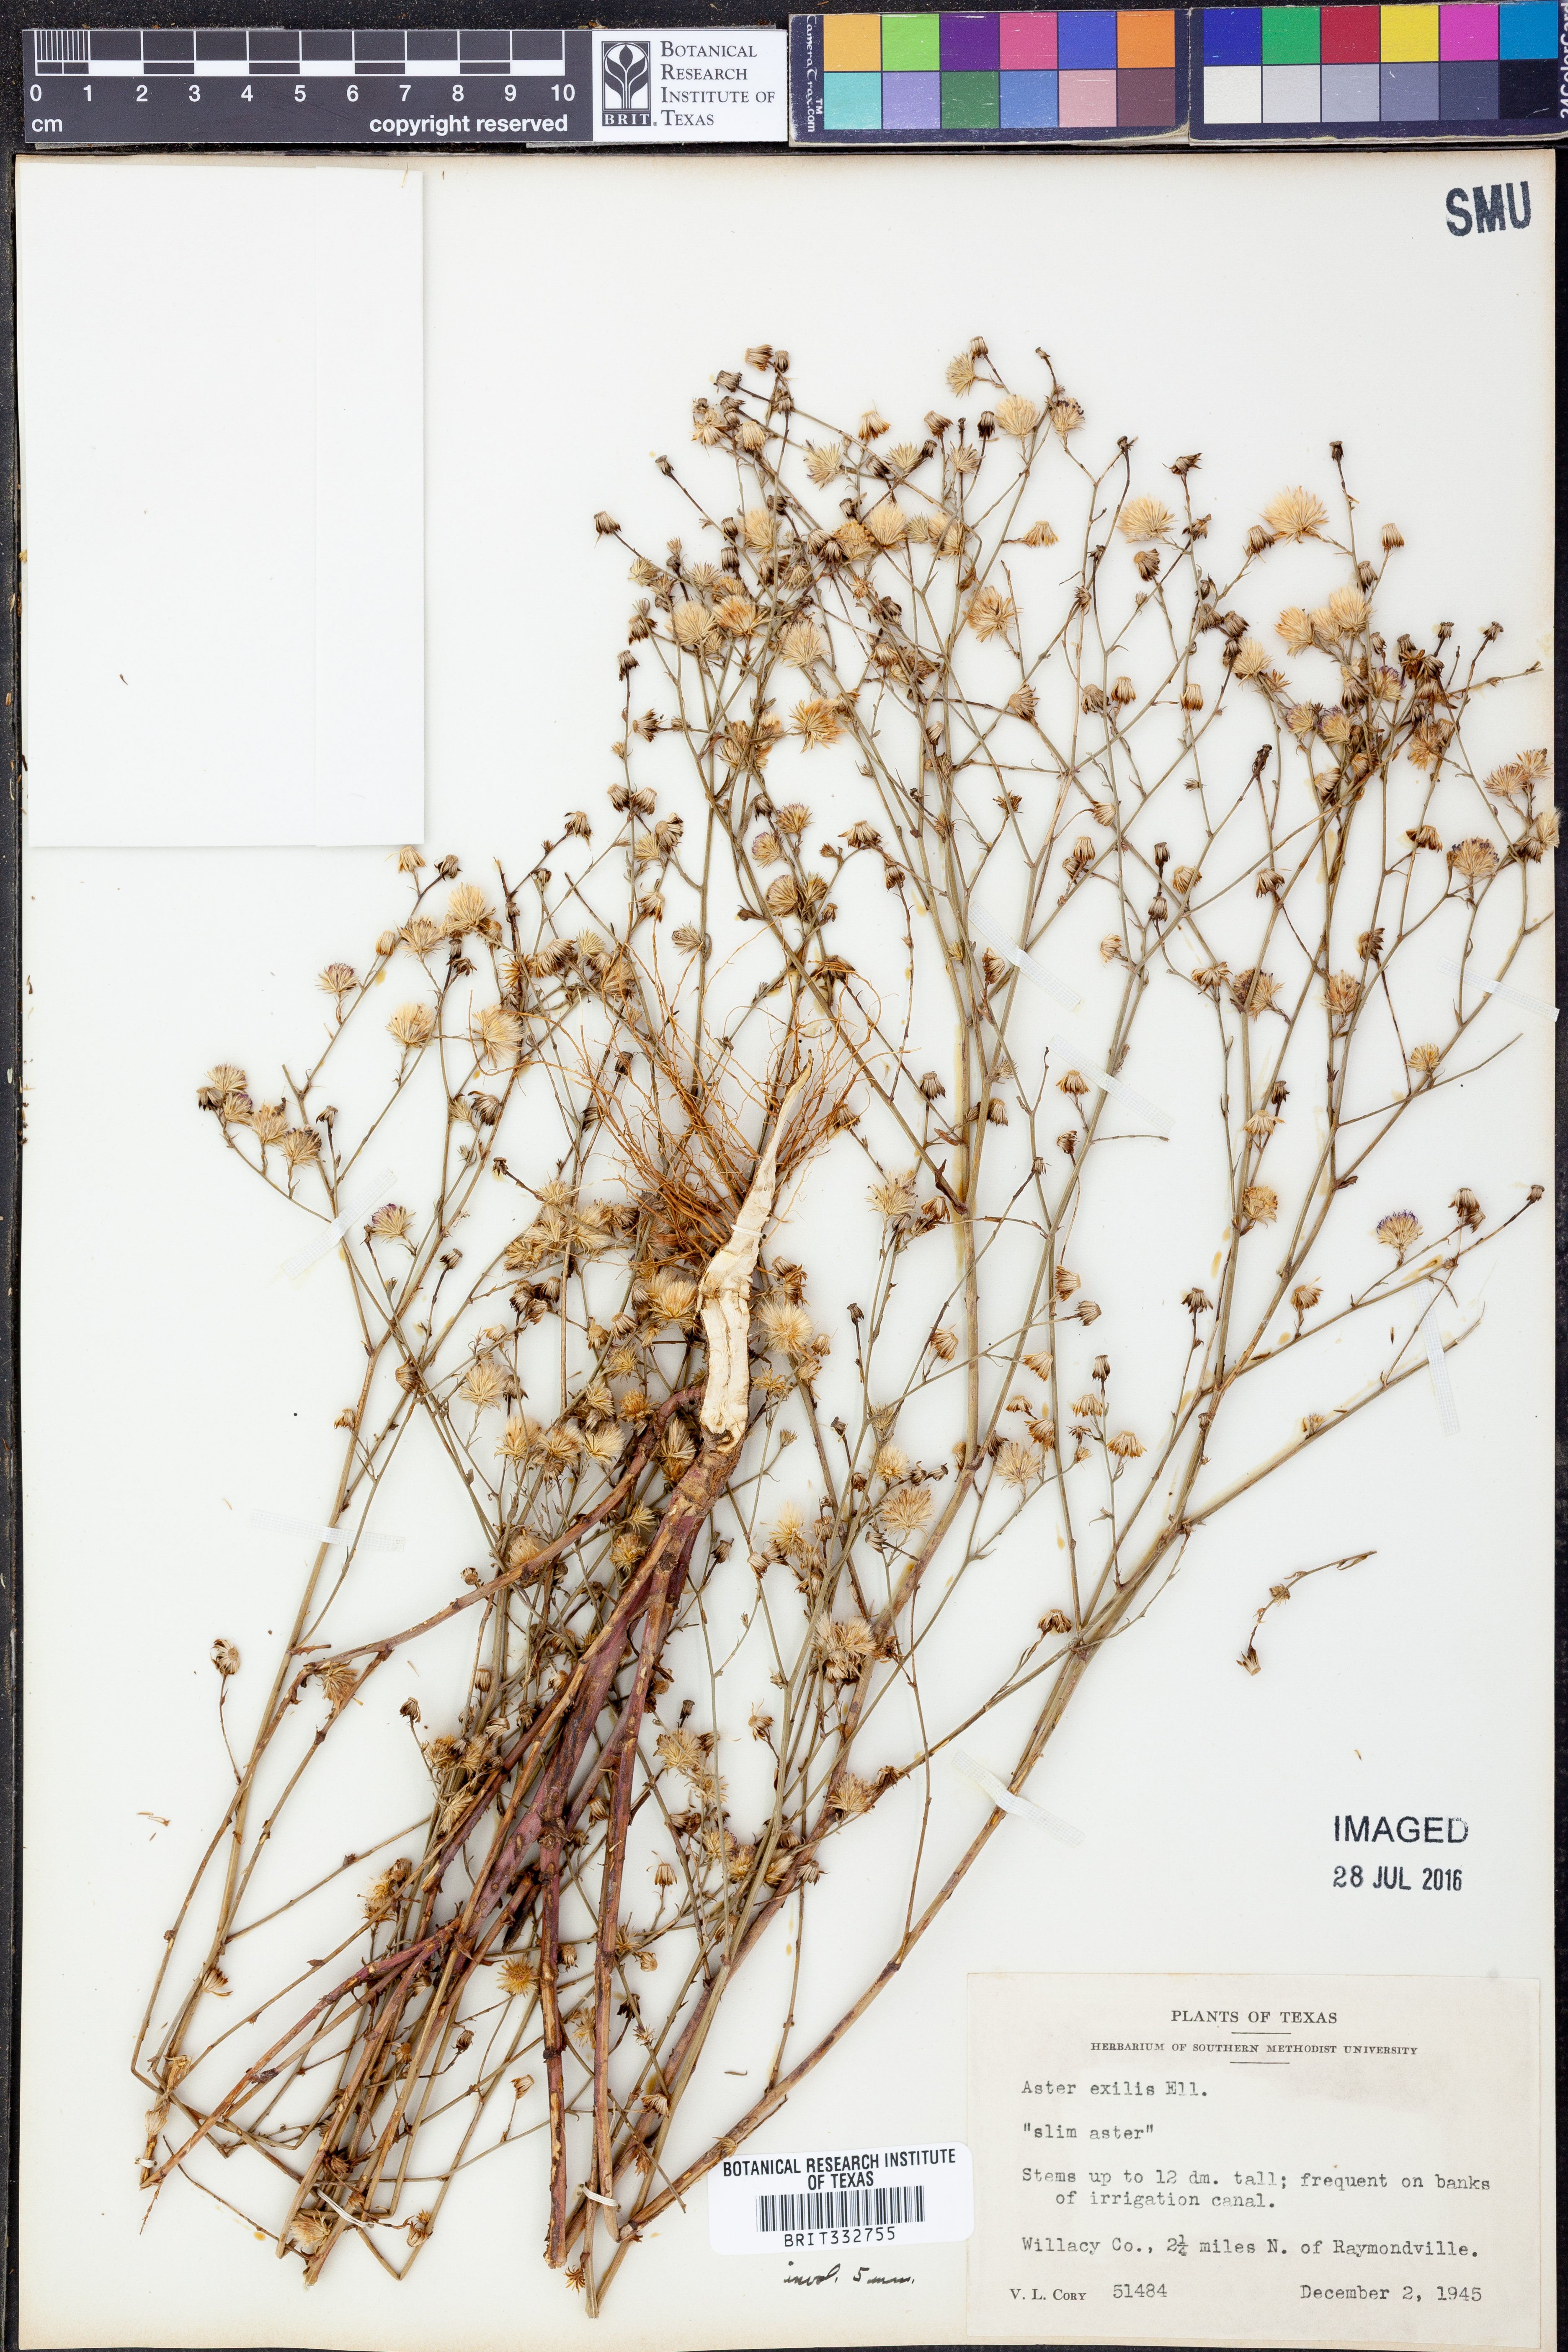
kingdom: Plantae
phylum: Tracheophyta
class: Magnoliopsida
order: Asterales
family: Asteraceae
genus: Symphyotrichum
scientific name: Symphyotrichum expansum
